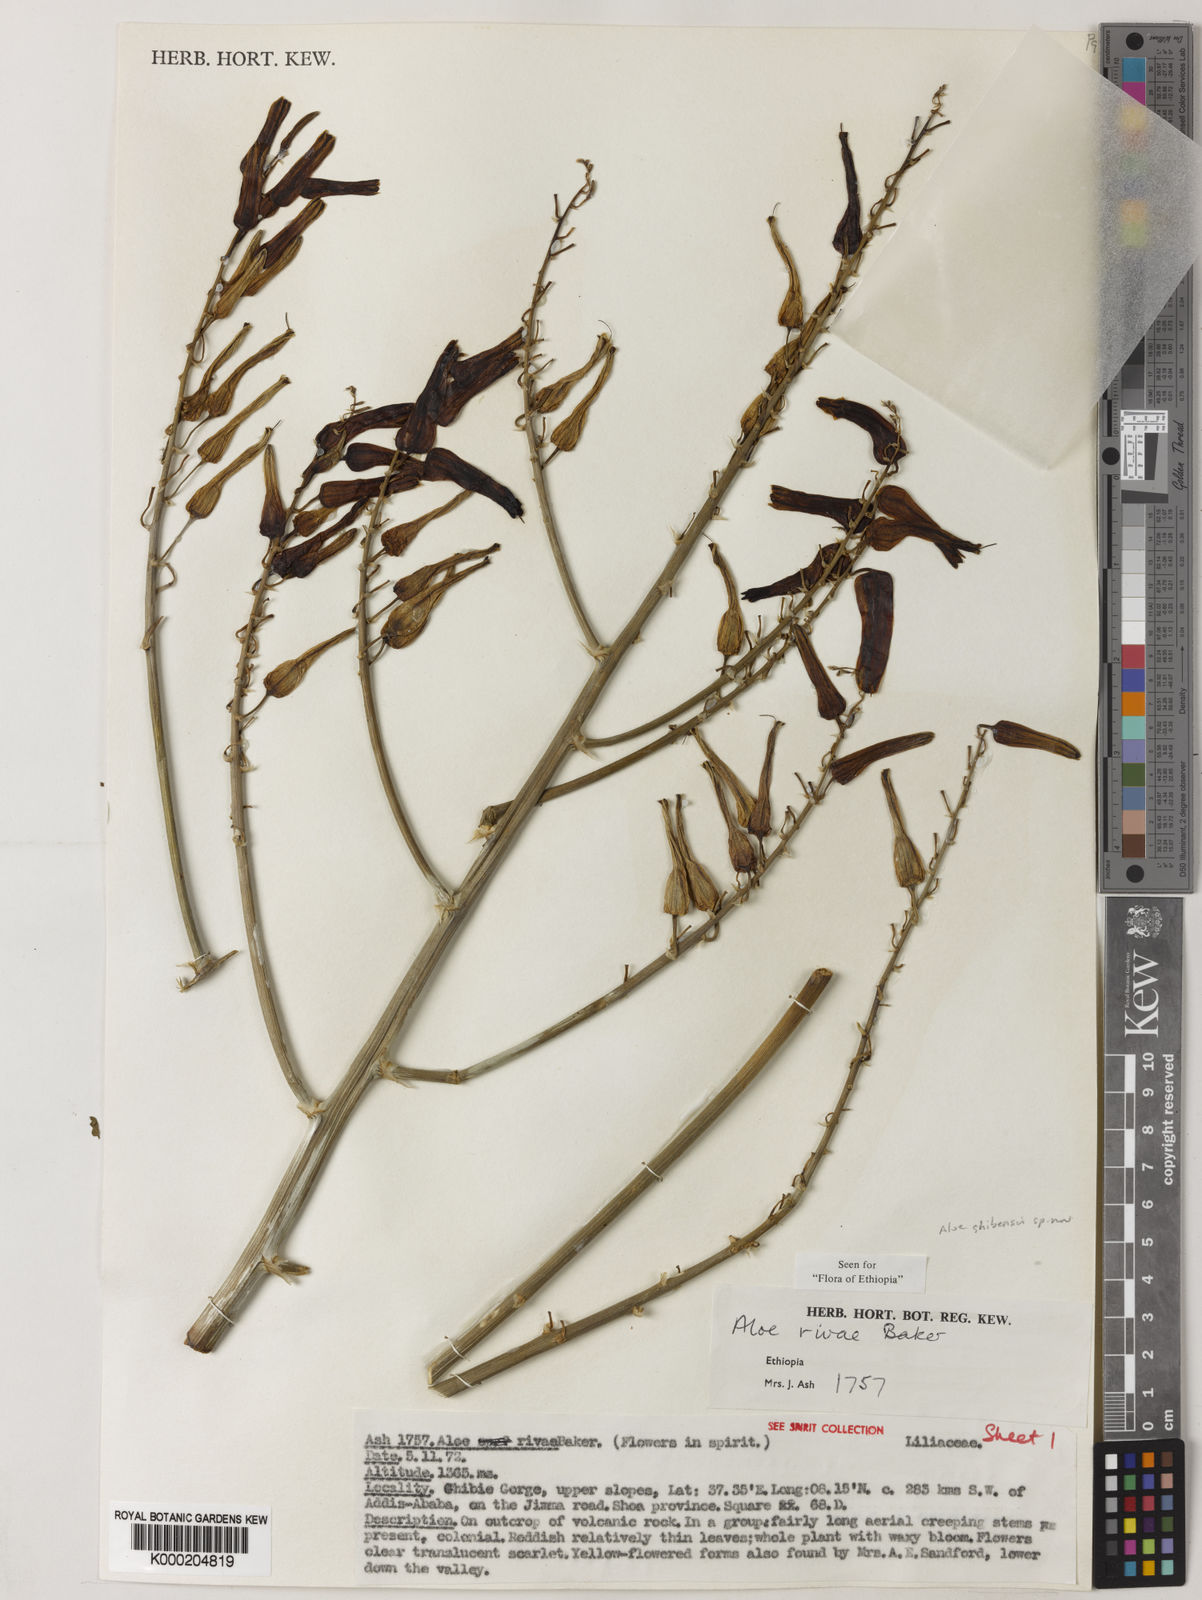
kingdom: Plantae
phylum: Tracheophyta
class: Liliopsida
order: Asparagales
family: Asphodelaceae
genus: Aloe
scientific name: Aloe ghibensis
